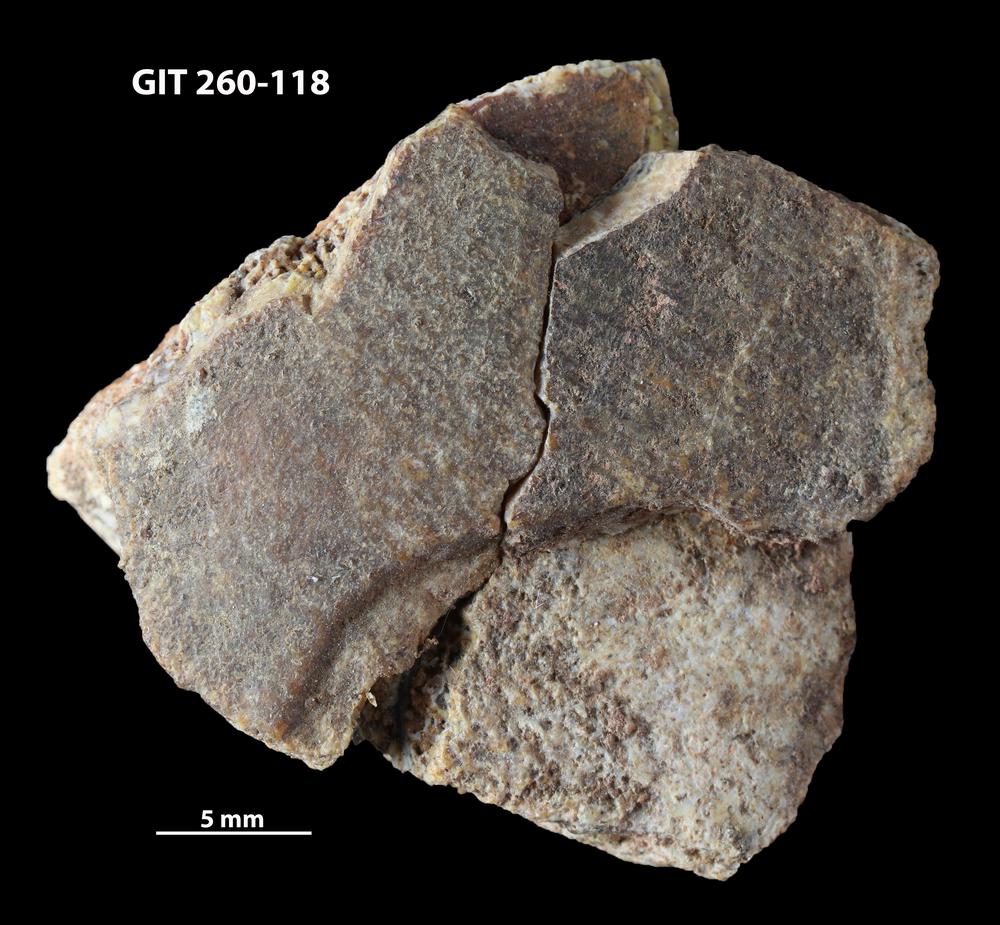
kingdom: Animalia
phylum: Chordata
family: Homostiidae
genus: Homostius
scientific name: Homostius
